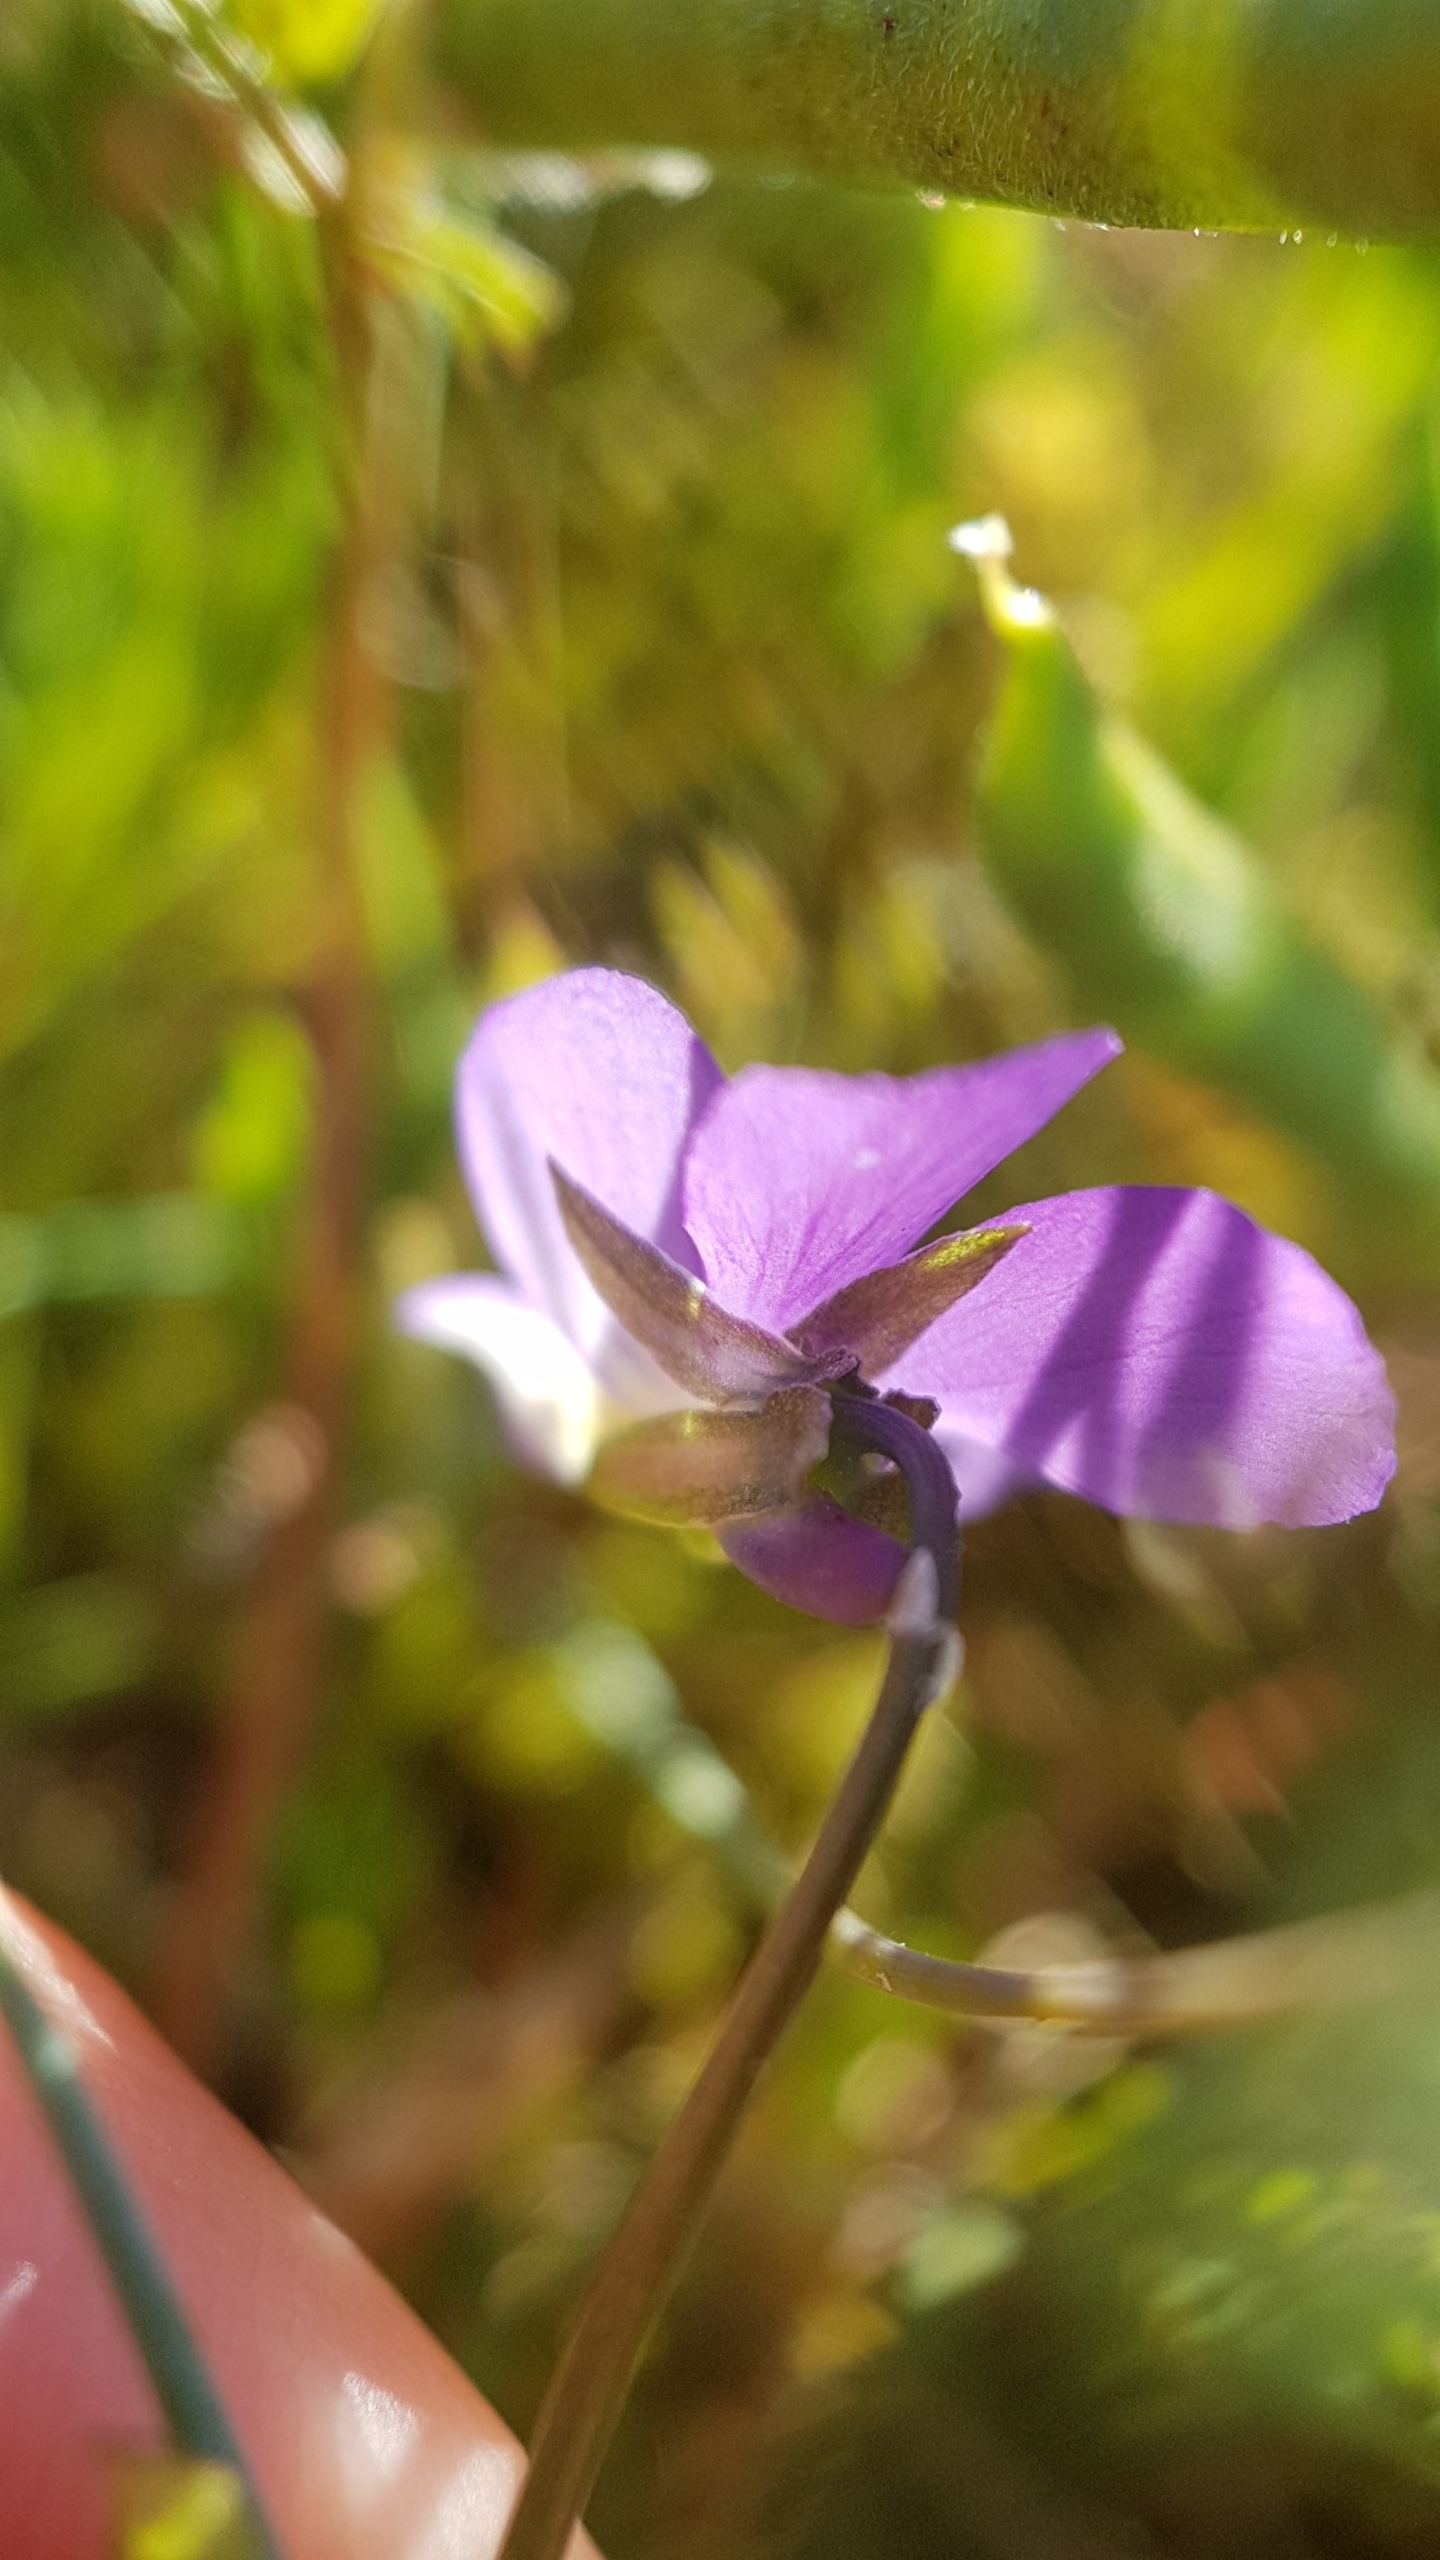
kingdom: Plantae
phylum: Tracheophyta
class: Magnoliopsida
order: Malpighiales
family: Violaceae
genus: Viola
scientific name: Viola tricolor
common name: Stedmoderblomst
